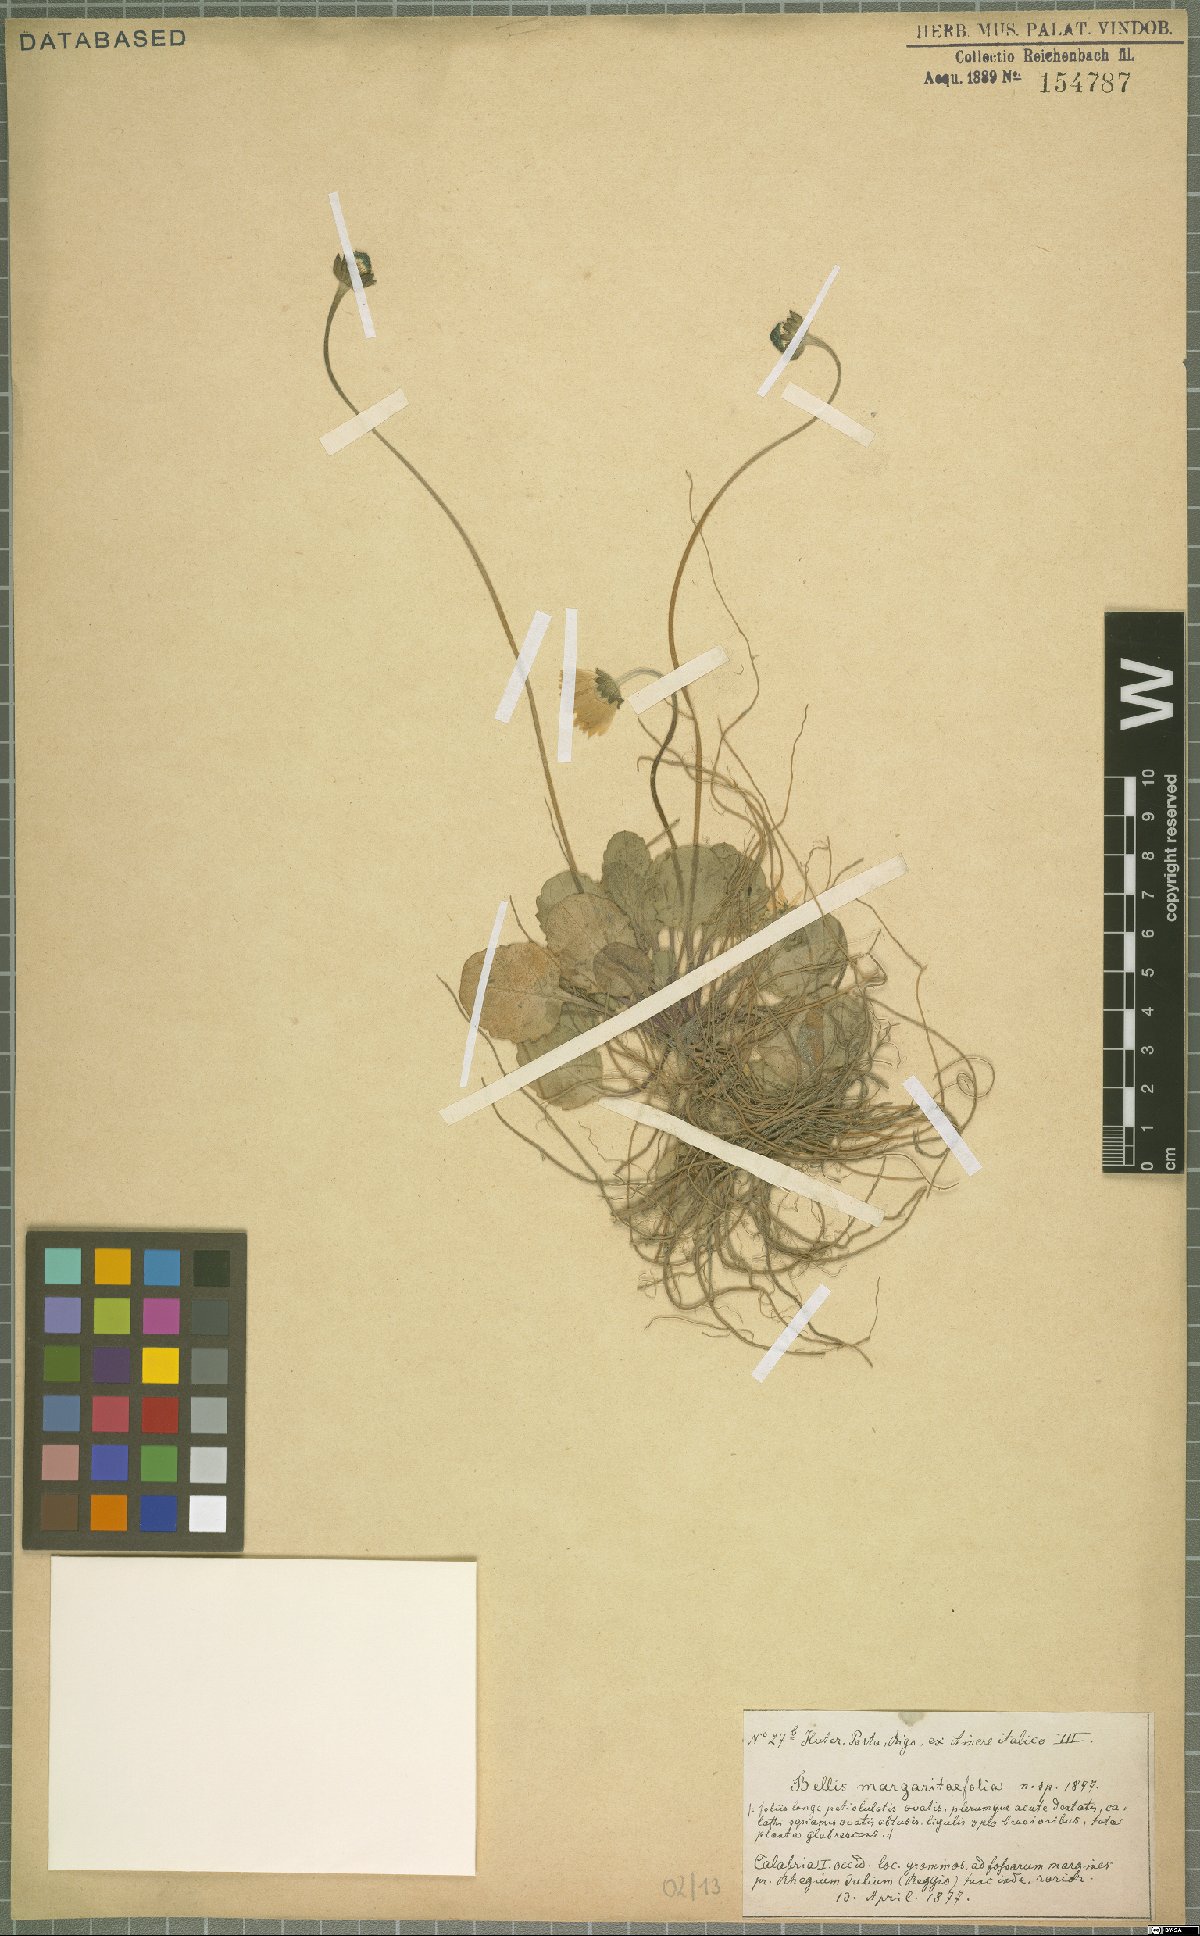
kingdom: Plantae
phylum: Tracheophyta
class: Magnoliopsida
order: Asterales
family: Asteraceae
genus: Bellis
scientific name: Bellis margaritifolia
